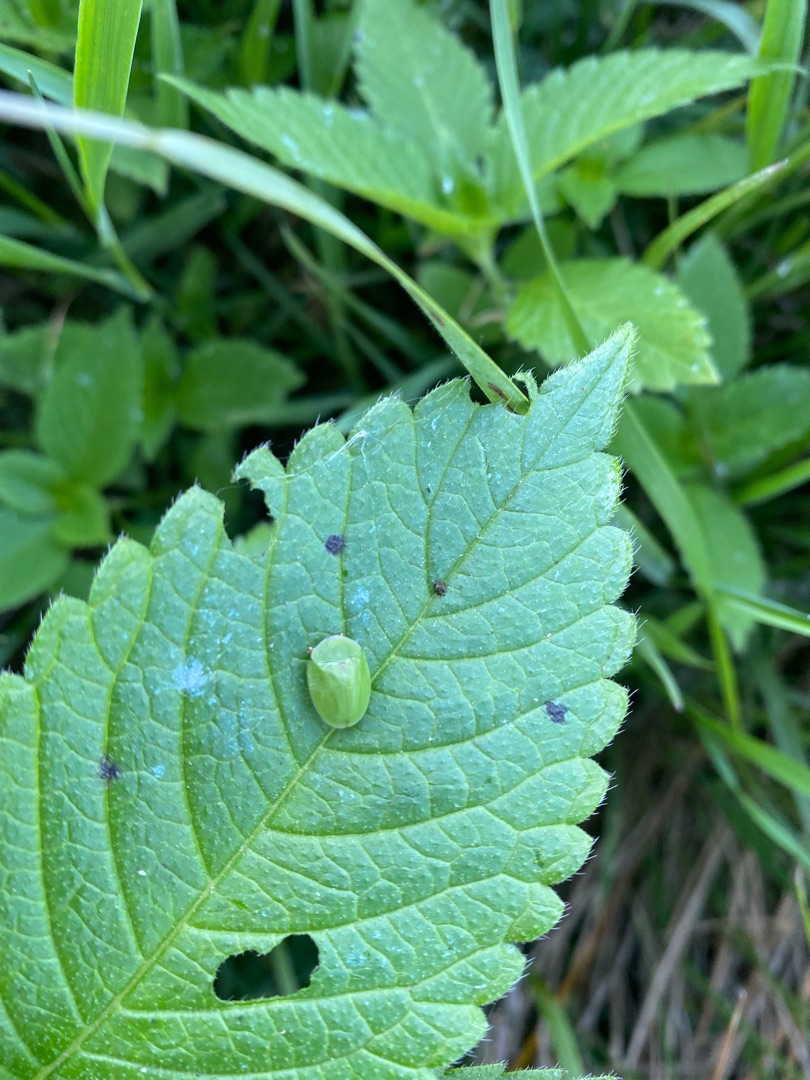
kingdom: Animalia
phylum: Arthropoda
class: Insecta
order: Coleoptera
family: Chrysomelidae
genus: Cassida
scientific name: Cassida viridis
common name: Stor skjoldbille
